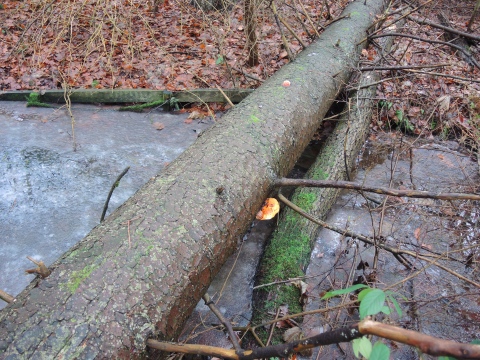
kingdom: Fungi
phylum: Basidiomycota
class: Agaricomycetes
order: Polyporales
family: Fomitopsidaceae
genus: Fomitopsis
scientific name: Fomitopsis pinicola
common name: randbæltet hovporesvamp
